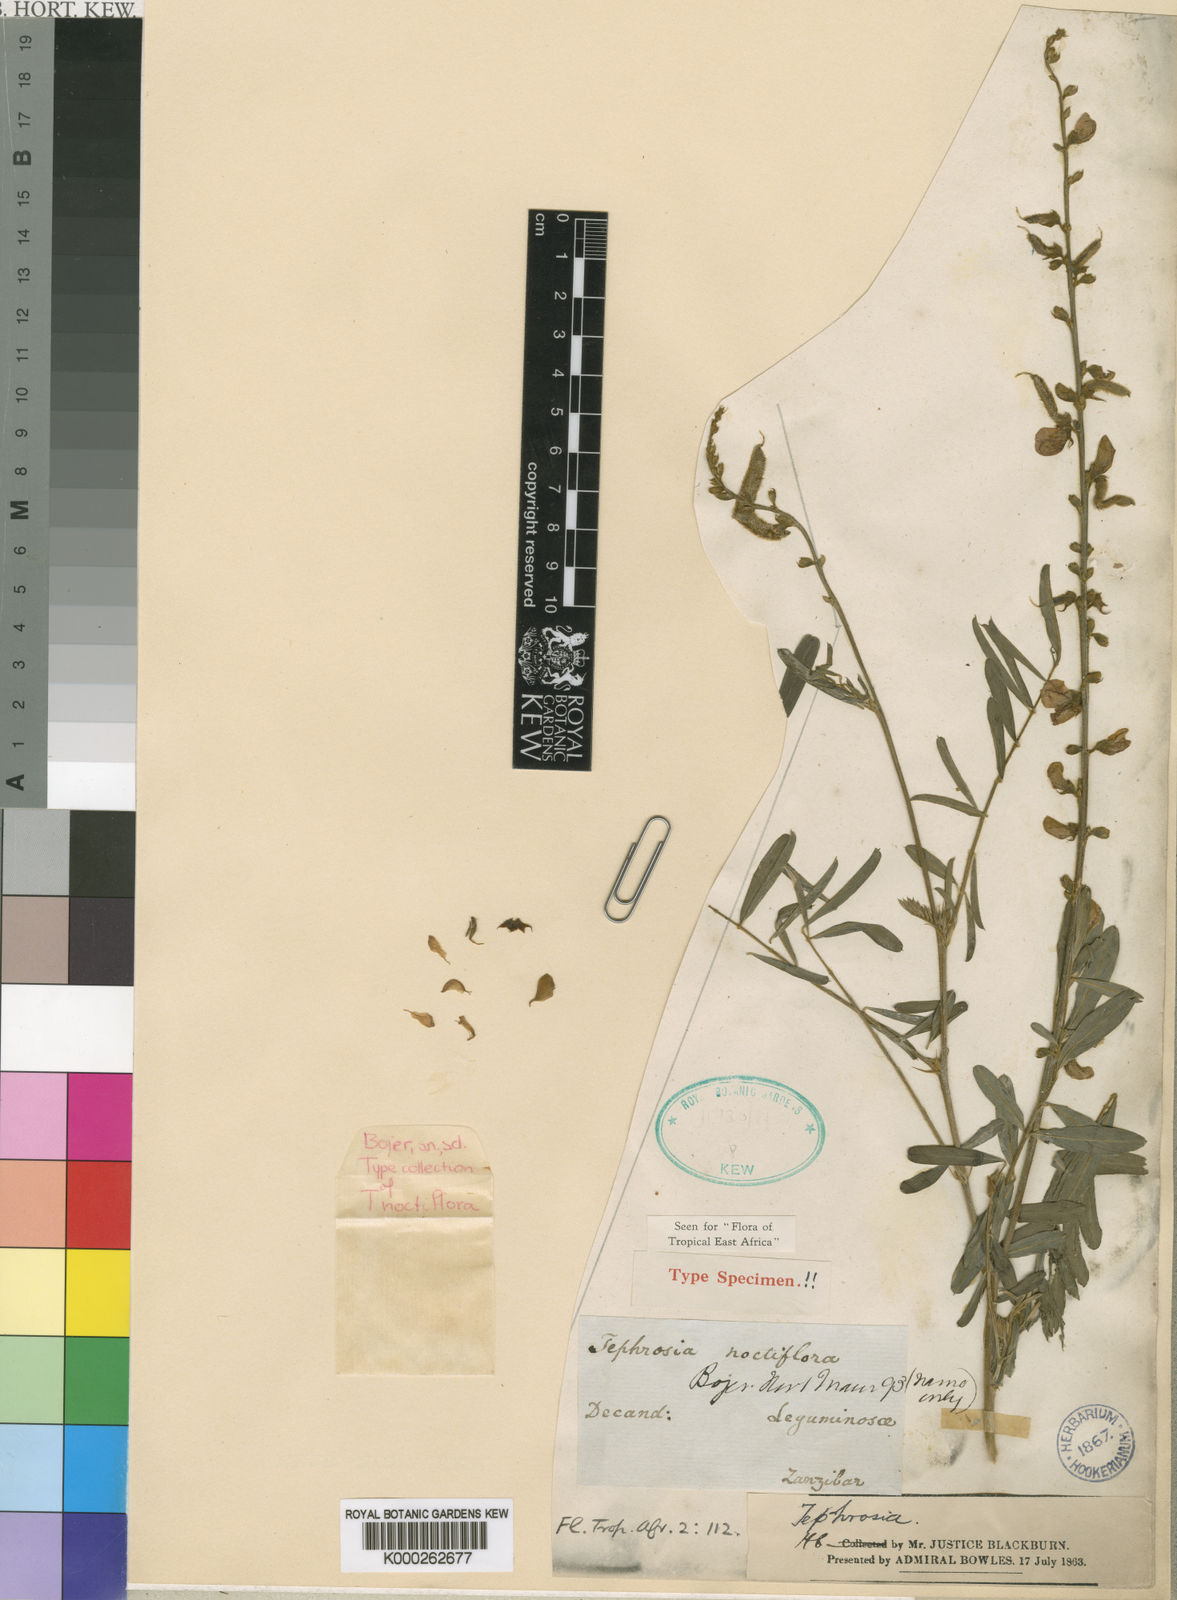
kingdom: Plantae
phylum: Tracheophyta
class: Magnoliopsida
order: Fabales
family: Fabaceae
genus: Tephrosia
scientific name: Tephrosia noctiflora
